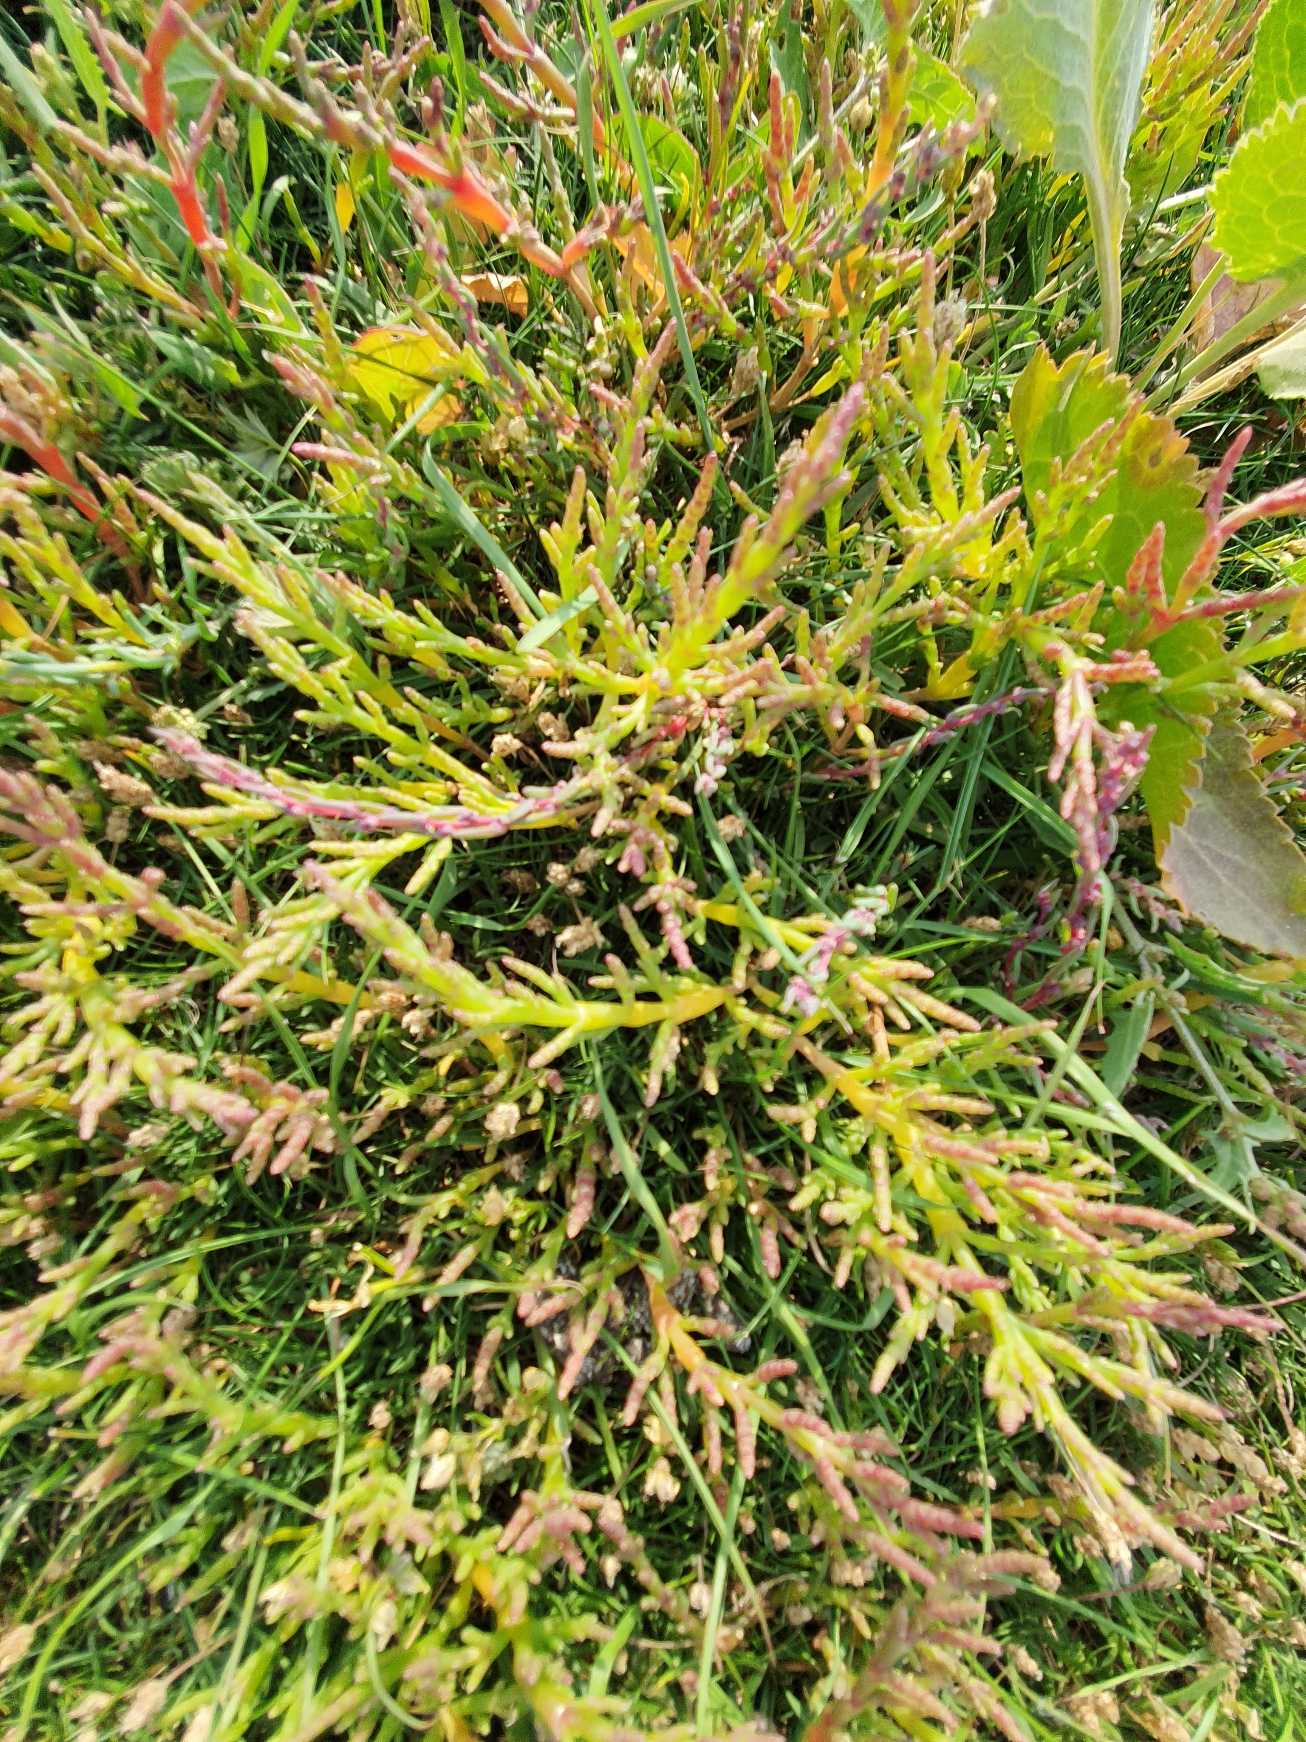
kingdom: Plantae
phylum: Tracheophyta
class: Magnoliopsida
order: Caryophyllales
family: Amaranthaceae
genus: Salicornia
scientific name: Salicornia europaea
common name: Almindelig salturt
